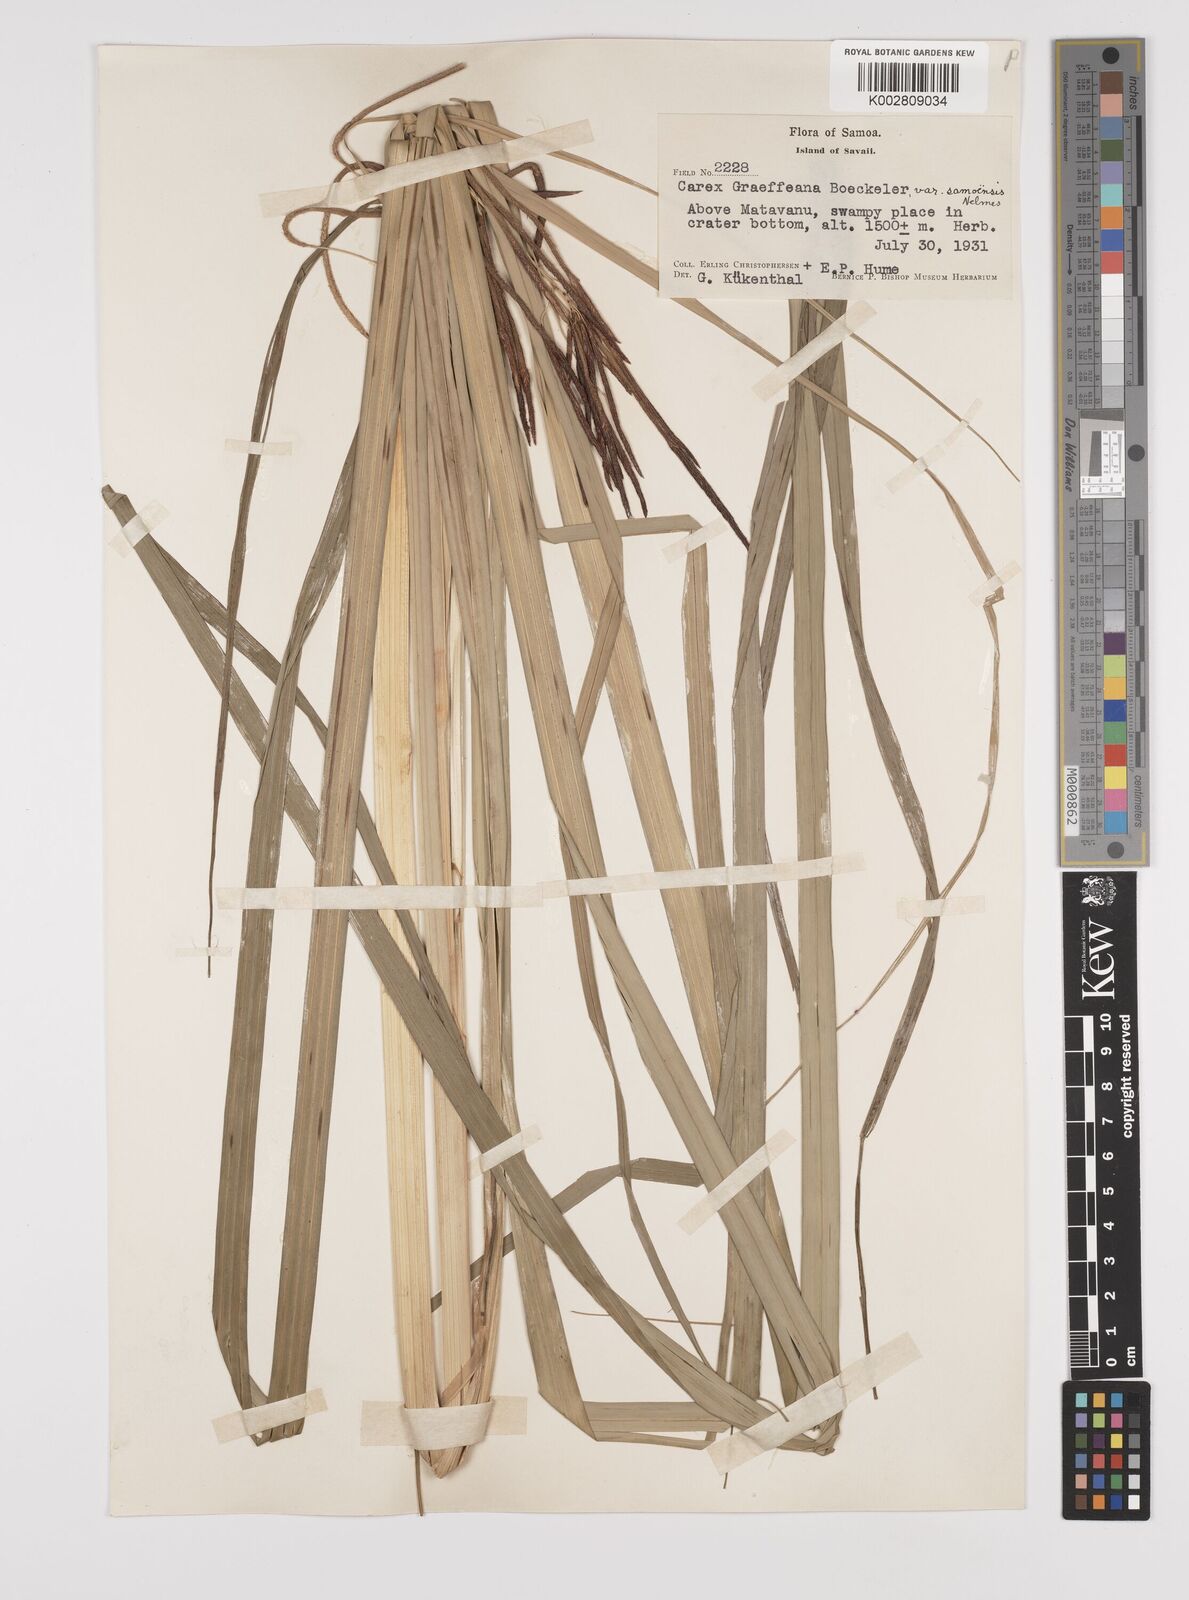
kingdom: Plantae
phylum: Tracheophyta
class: Liliopsida
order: Poales
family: Cyperaceae
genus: Carex
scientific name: Carex graeffeana
